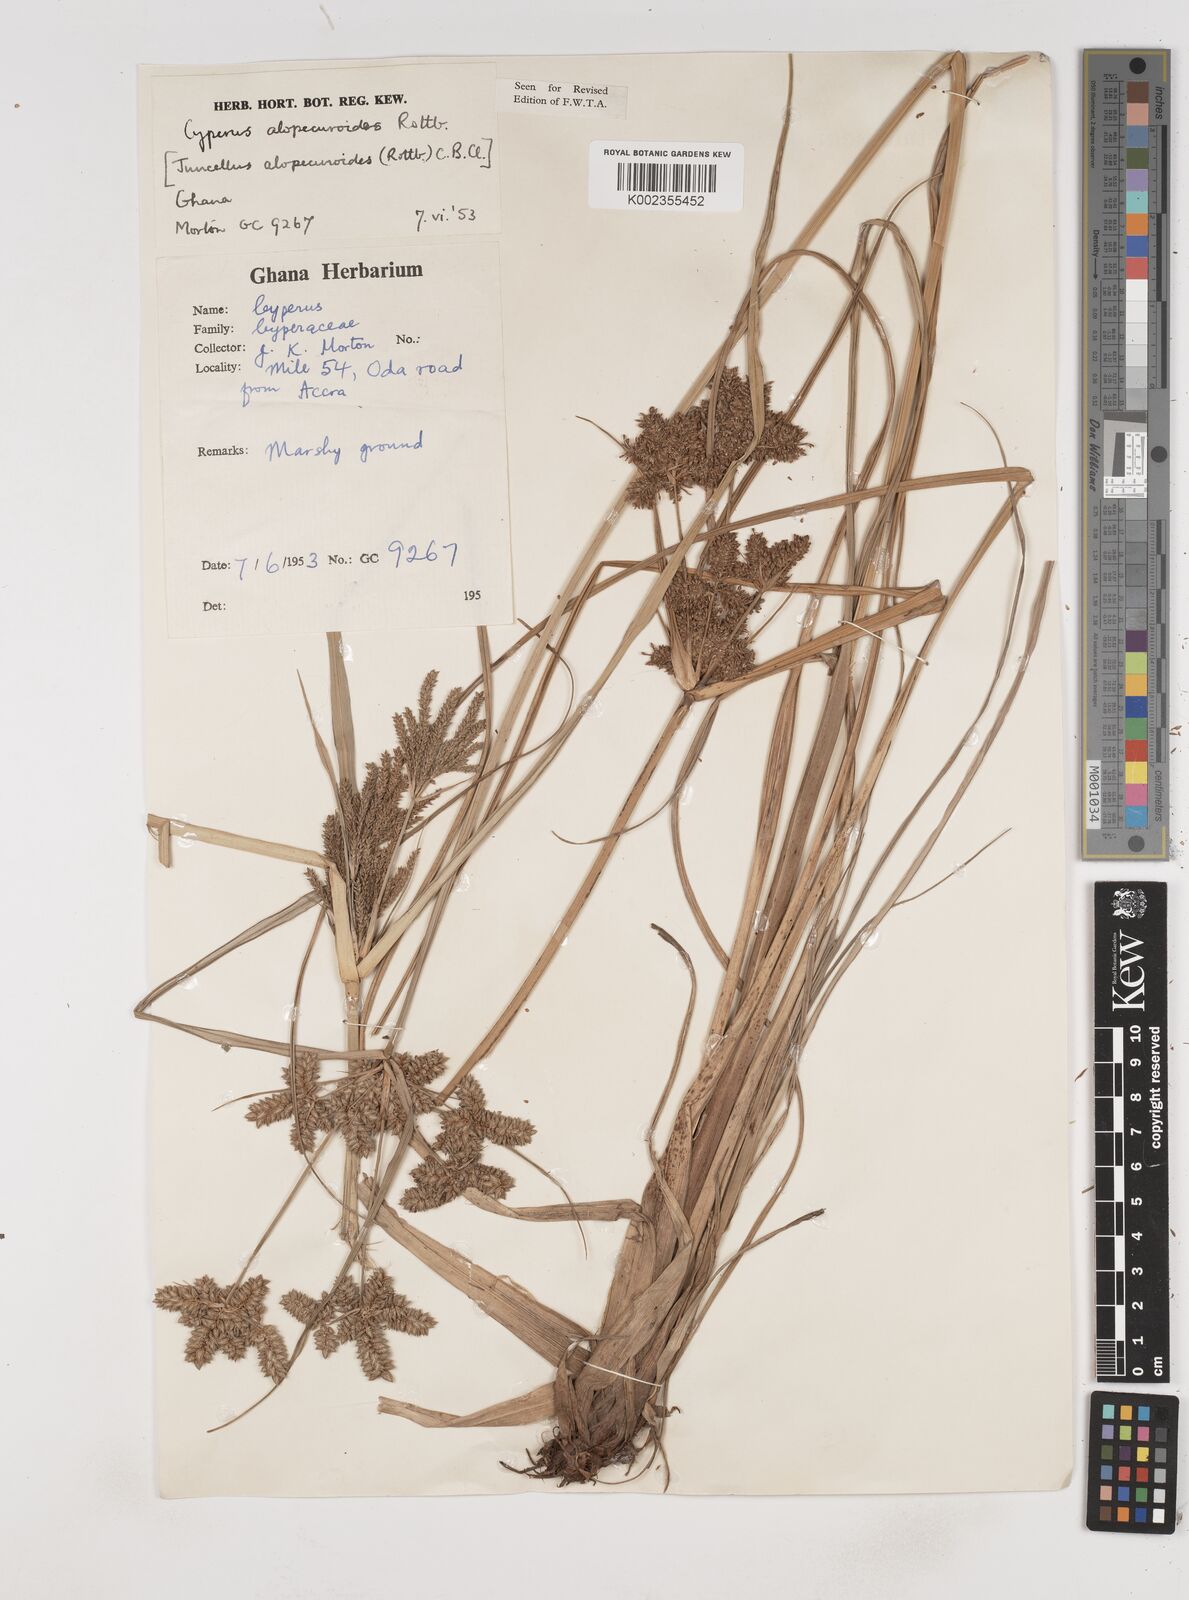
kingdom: Plantae
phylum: Tracheophyta
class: Liliopsida
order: Poales
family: Cyperaceae
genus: Cyperus
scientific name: Cyperus alopecuroides
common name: Foxtail flatsedge
